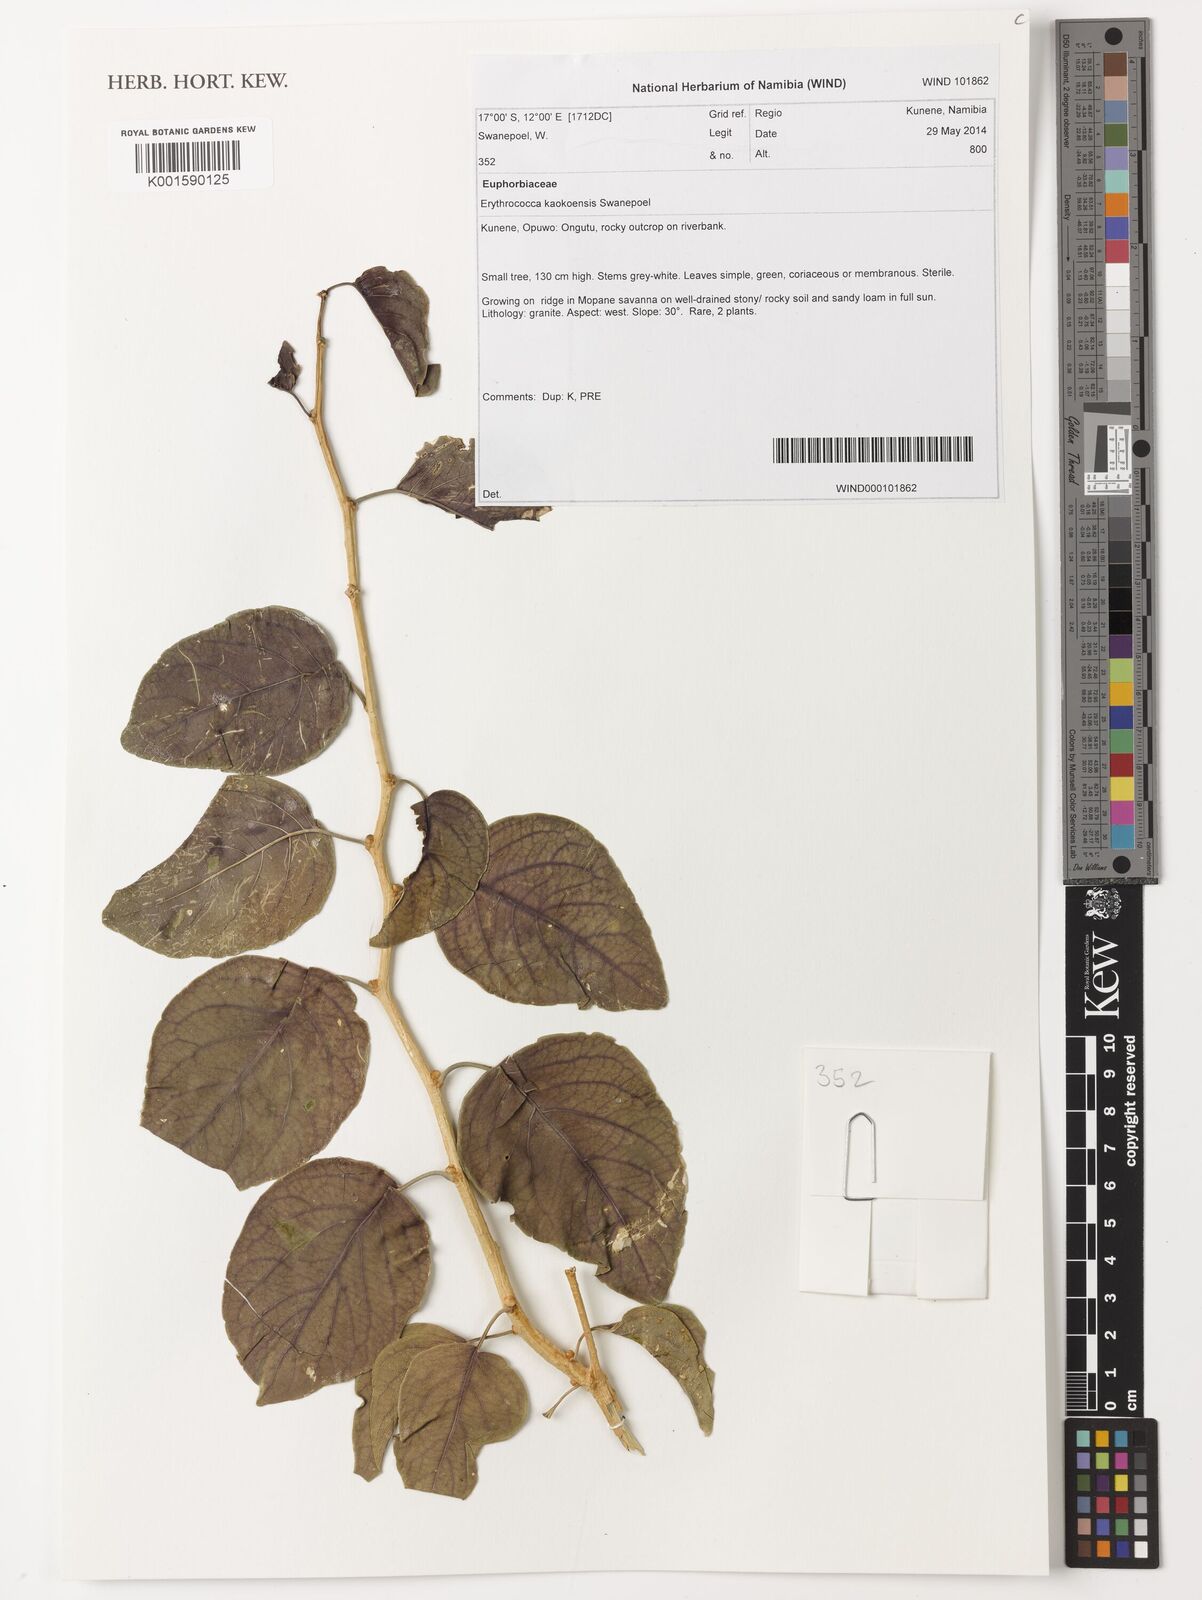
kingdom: Plantae
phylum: Tracheophyta
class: Magnoliopsida
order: Malpighiales
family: Euphorbiaceae
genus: Erythrococca
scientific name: Erythrococca kaokoensis
